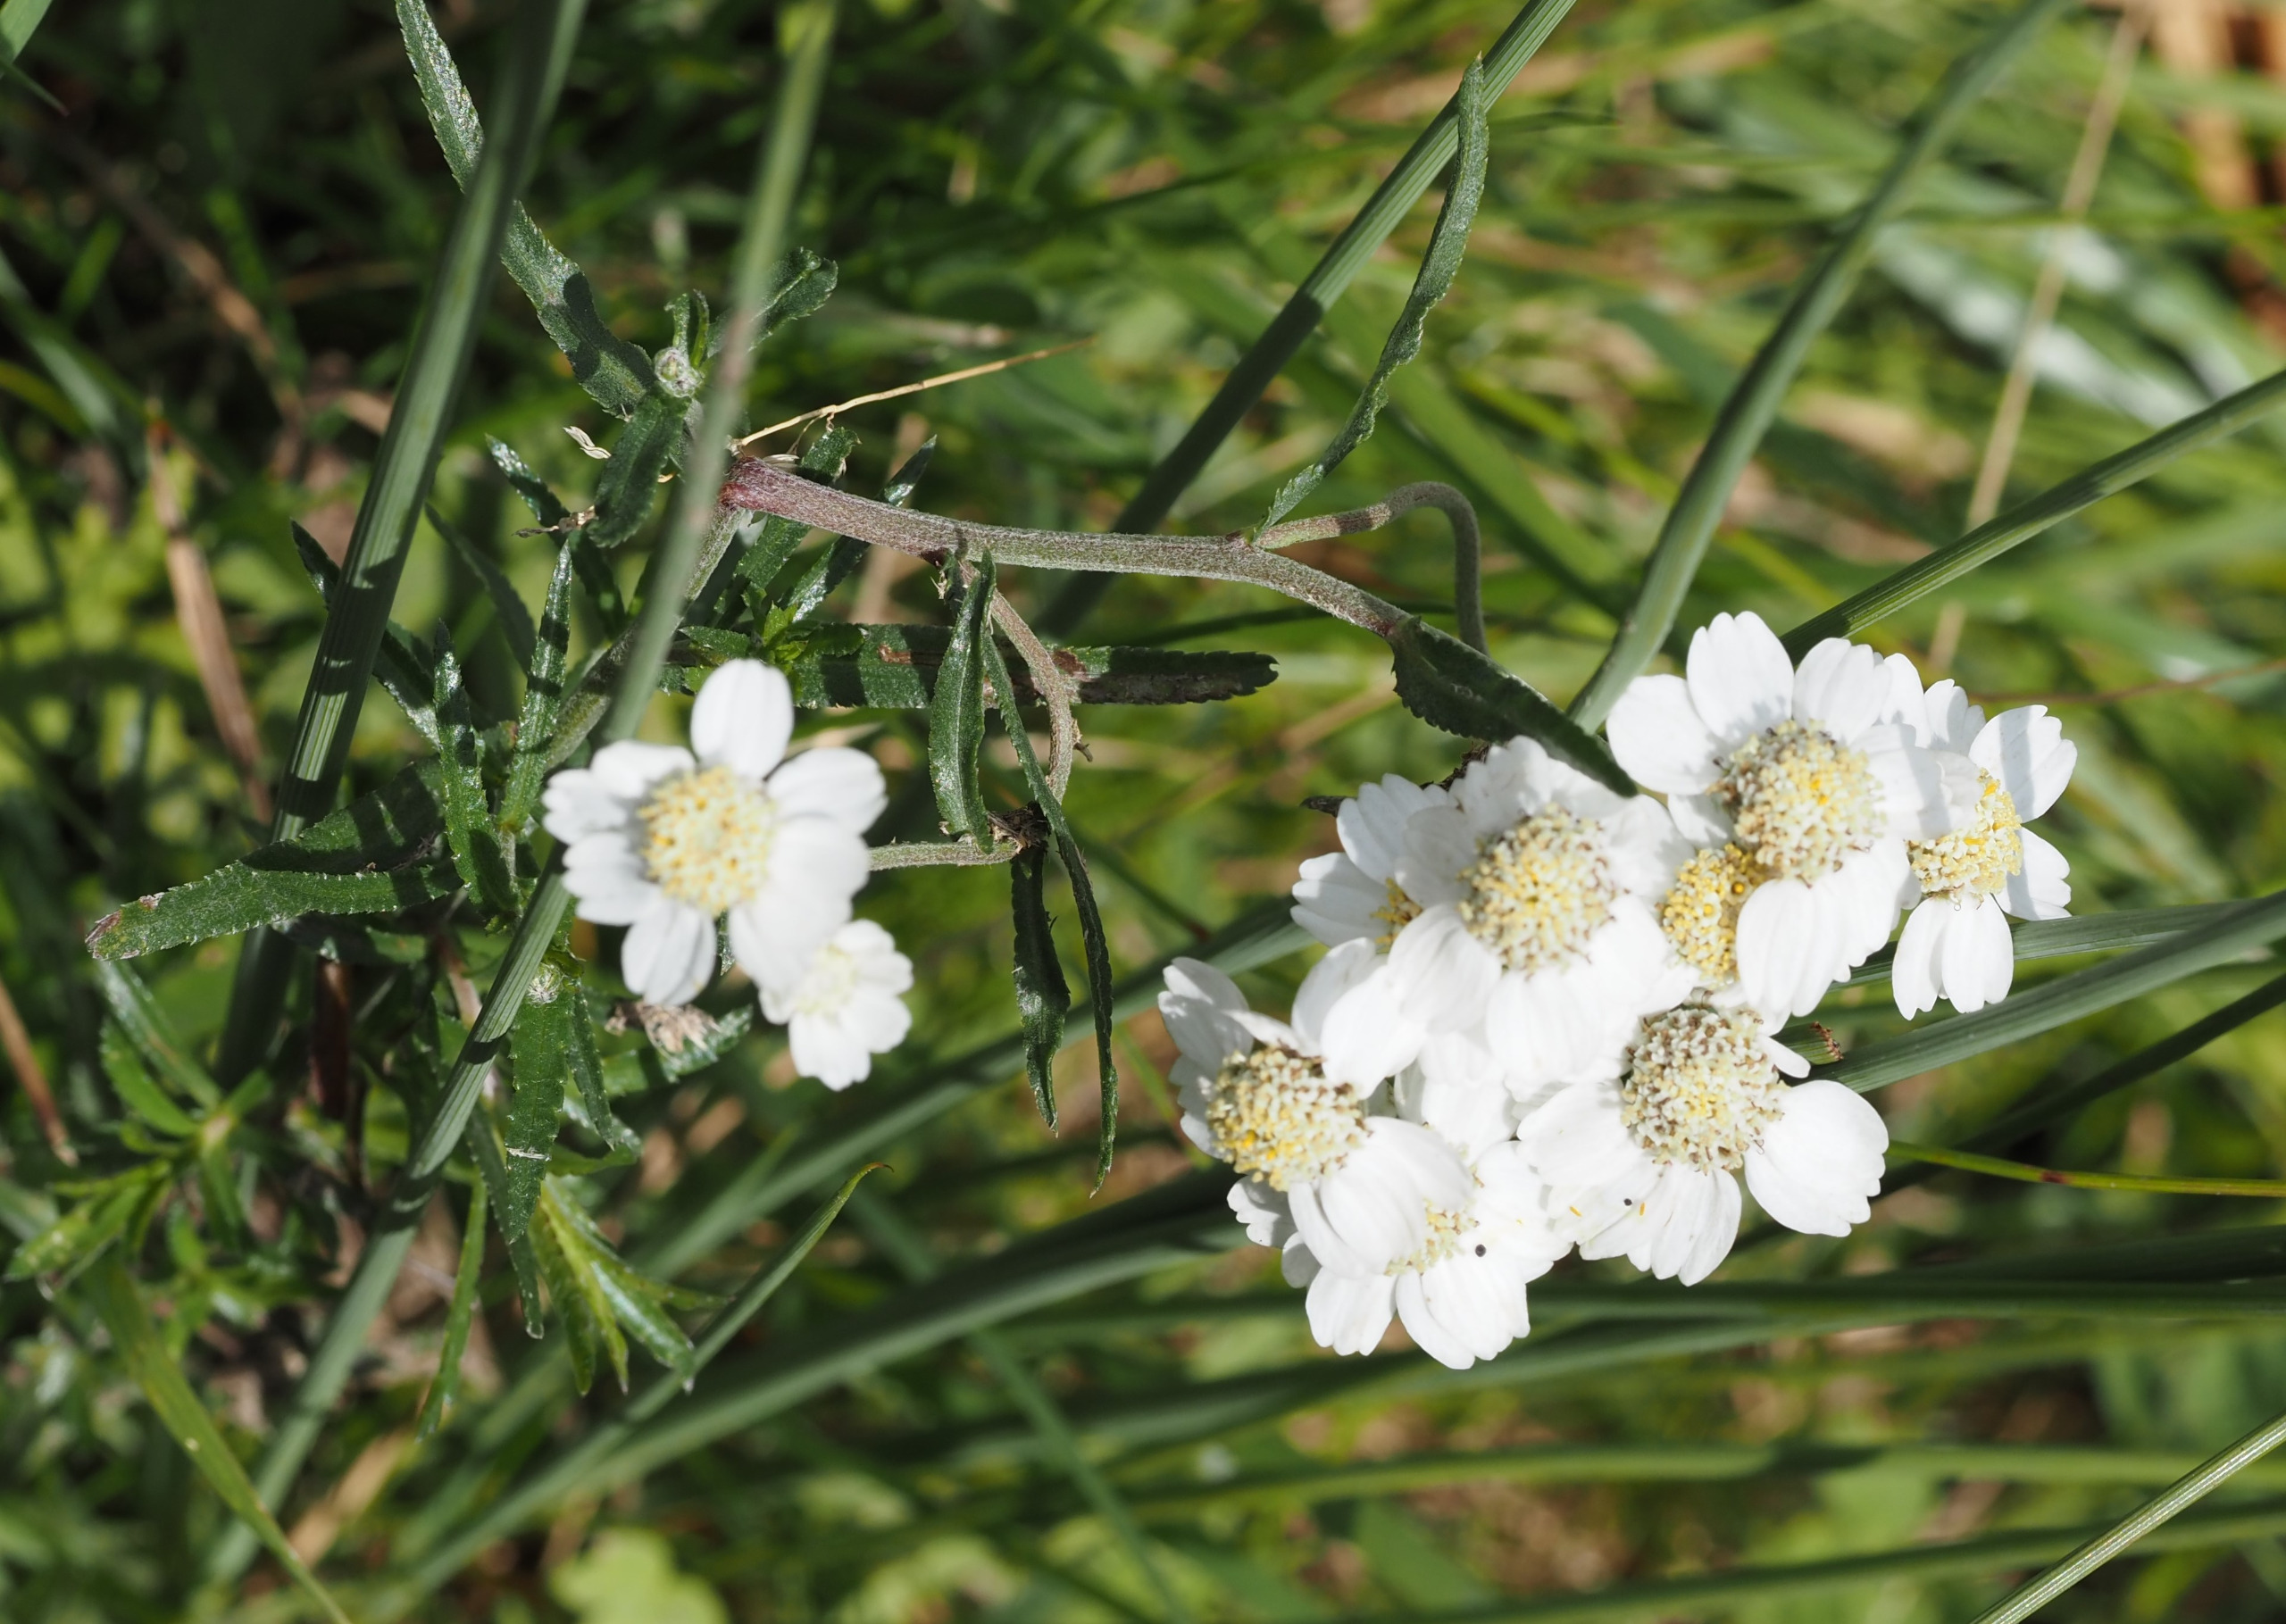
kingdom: Plantae
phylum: Tracheophyta
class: Magnoliopsida
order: Asterales
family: Asteraceae
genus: Achillea
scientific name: Achillea ptarmica
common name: Nyse-røllike
